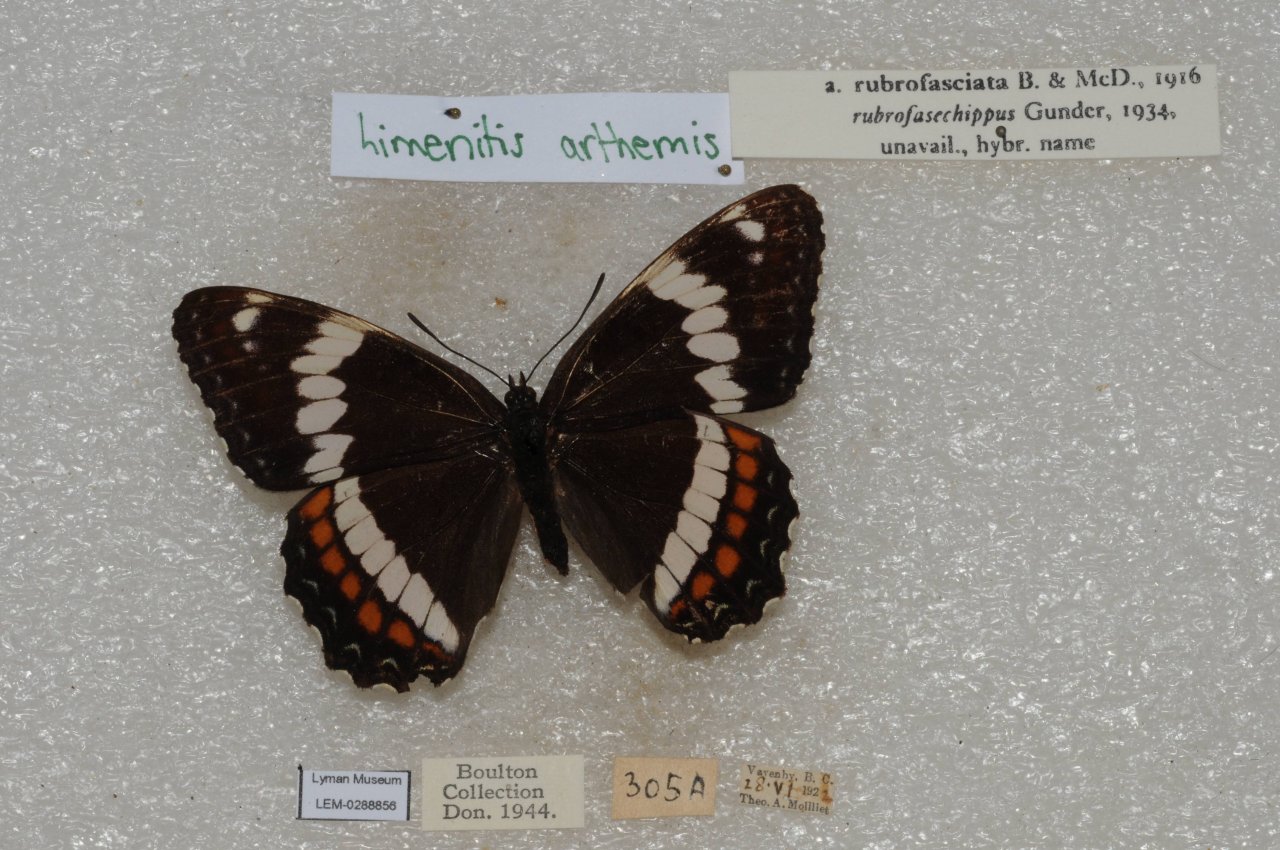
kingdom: Animalia
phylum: Arthropoda
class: Insecta
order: Lepidoptera
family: Nymphalidae
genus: Limenitis
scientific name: Limenitis arthemis
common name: Red-spotted Admiral
